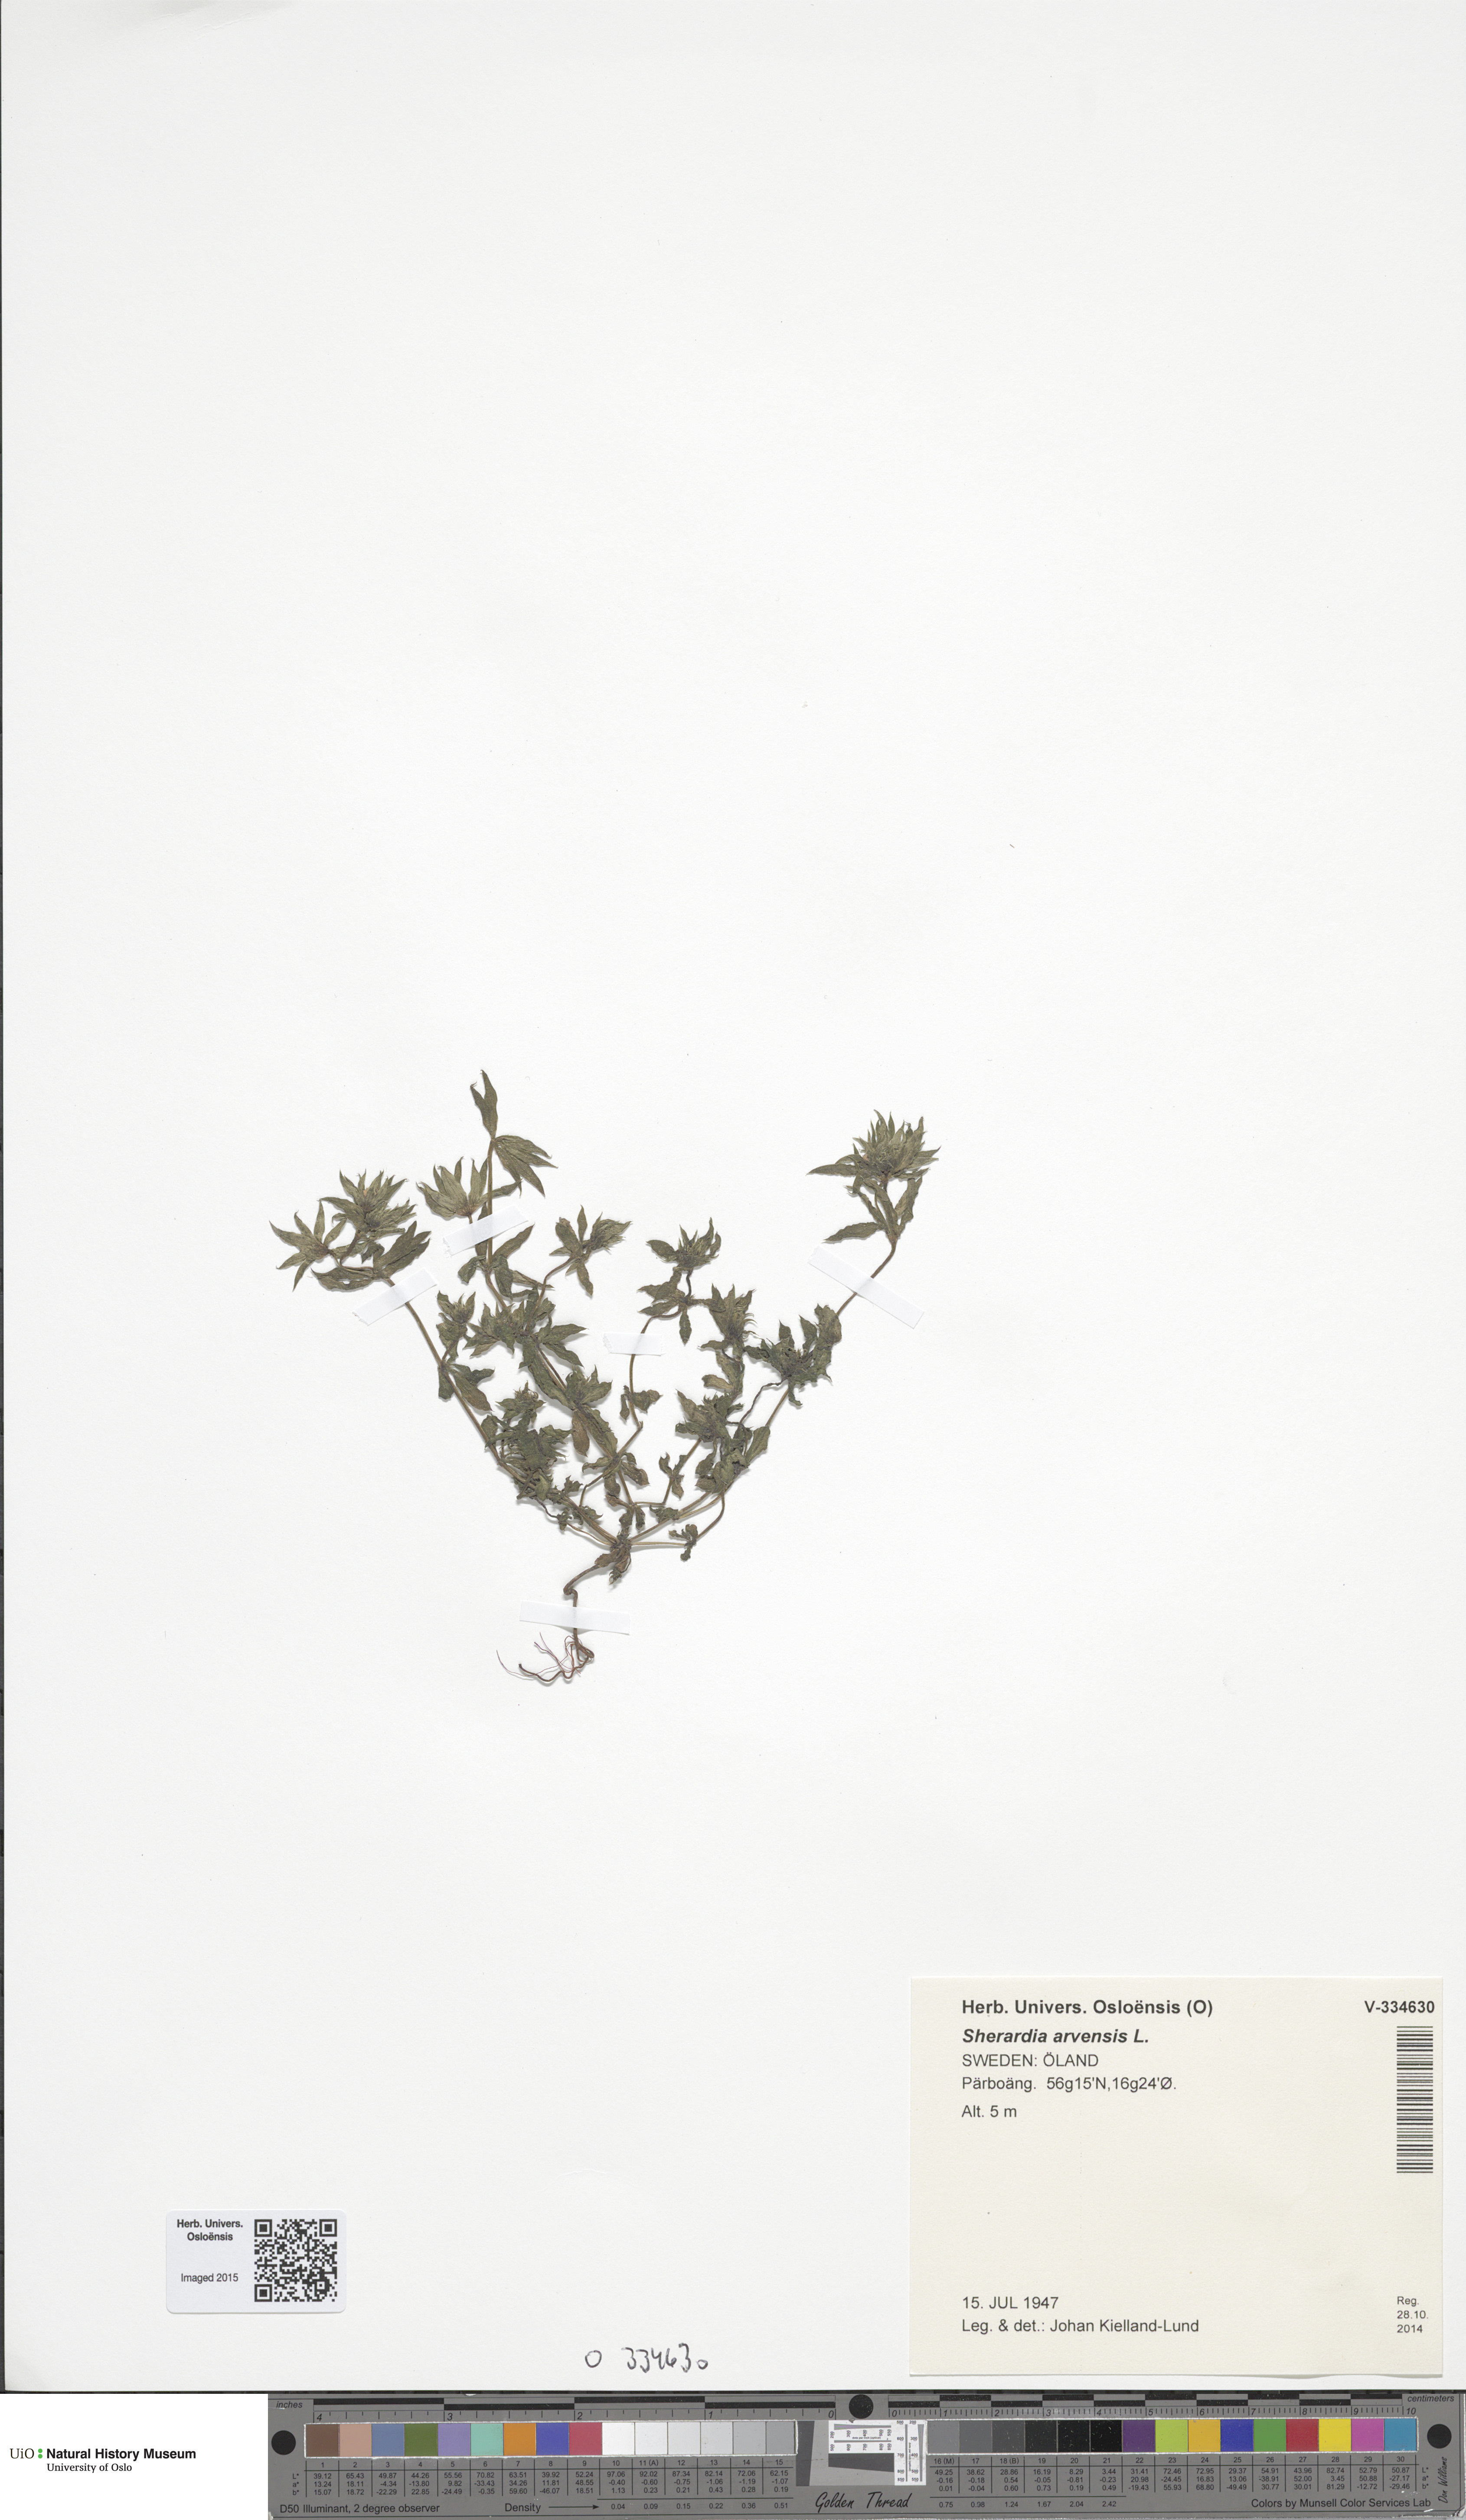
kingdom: Plantae
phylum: Tracheophyta
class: Magnoliopsida
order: Gentianales
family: Rubiaceae
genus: Sherardia
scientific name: Sherardia arvensis
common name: Field madder
